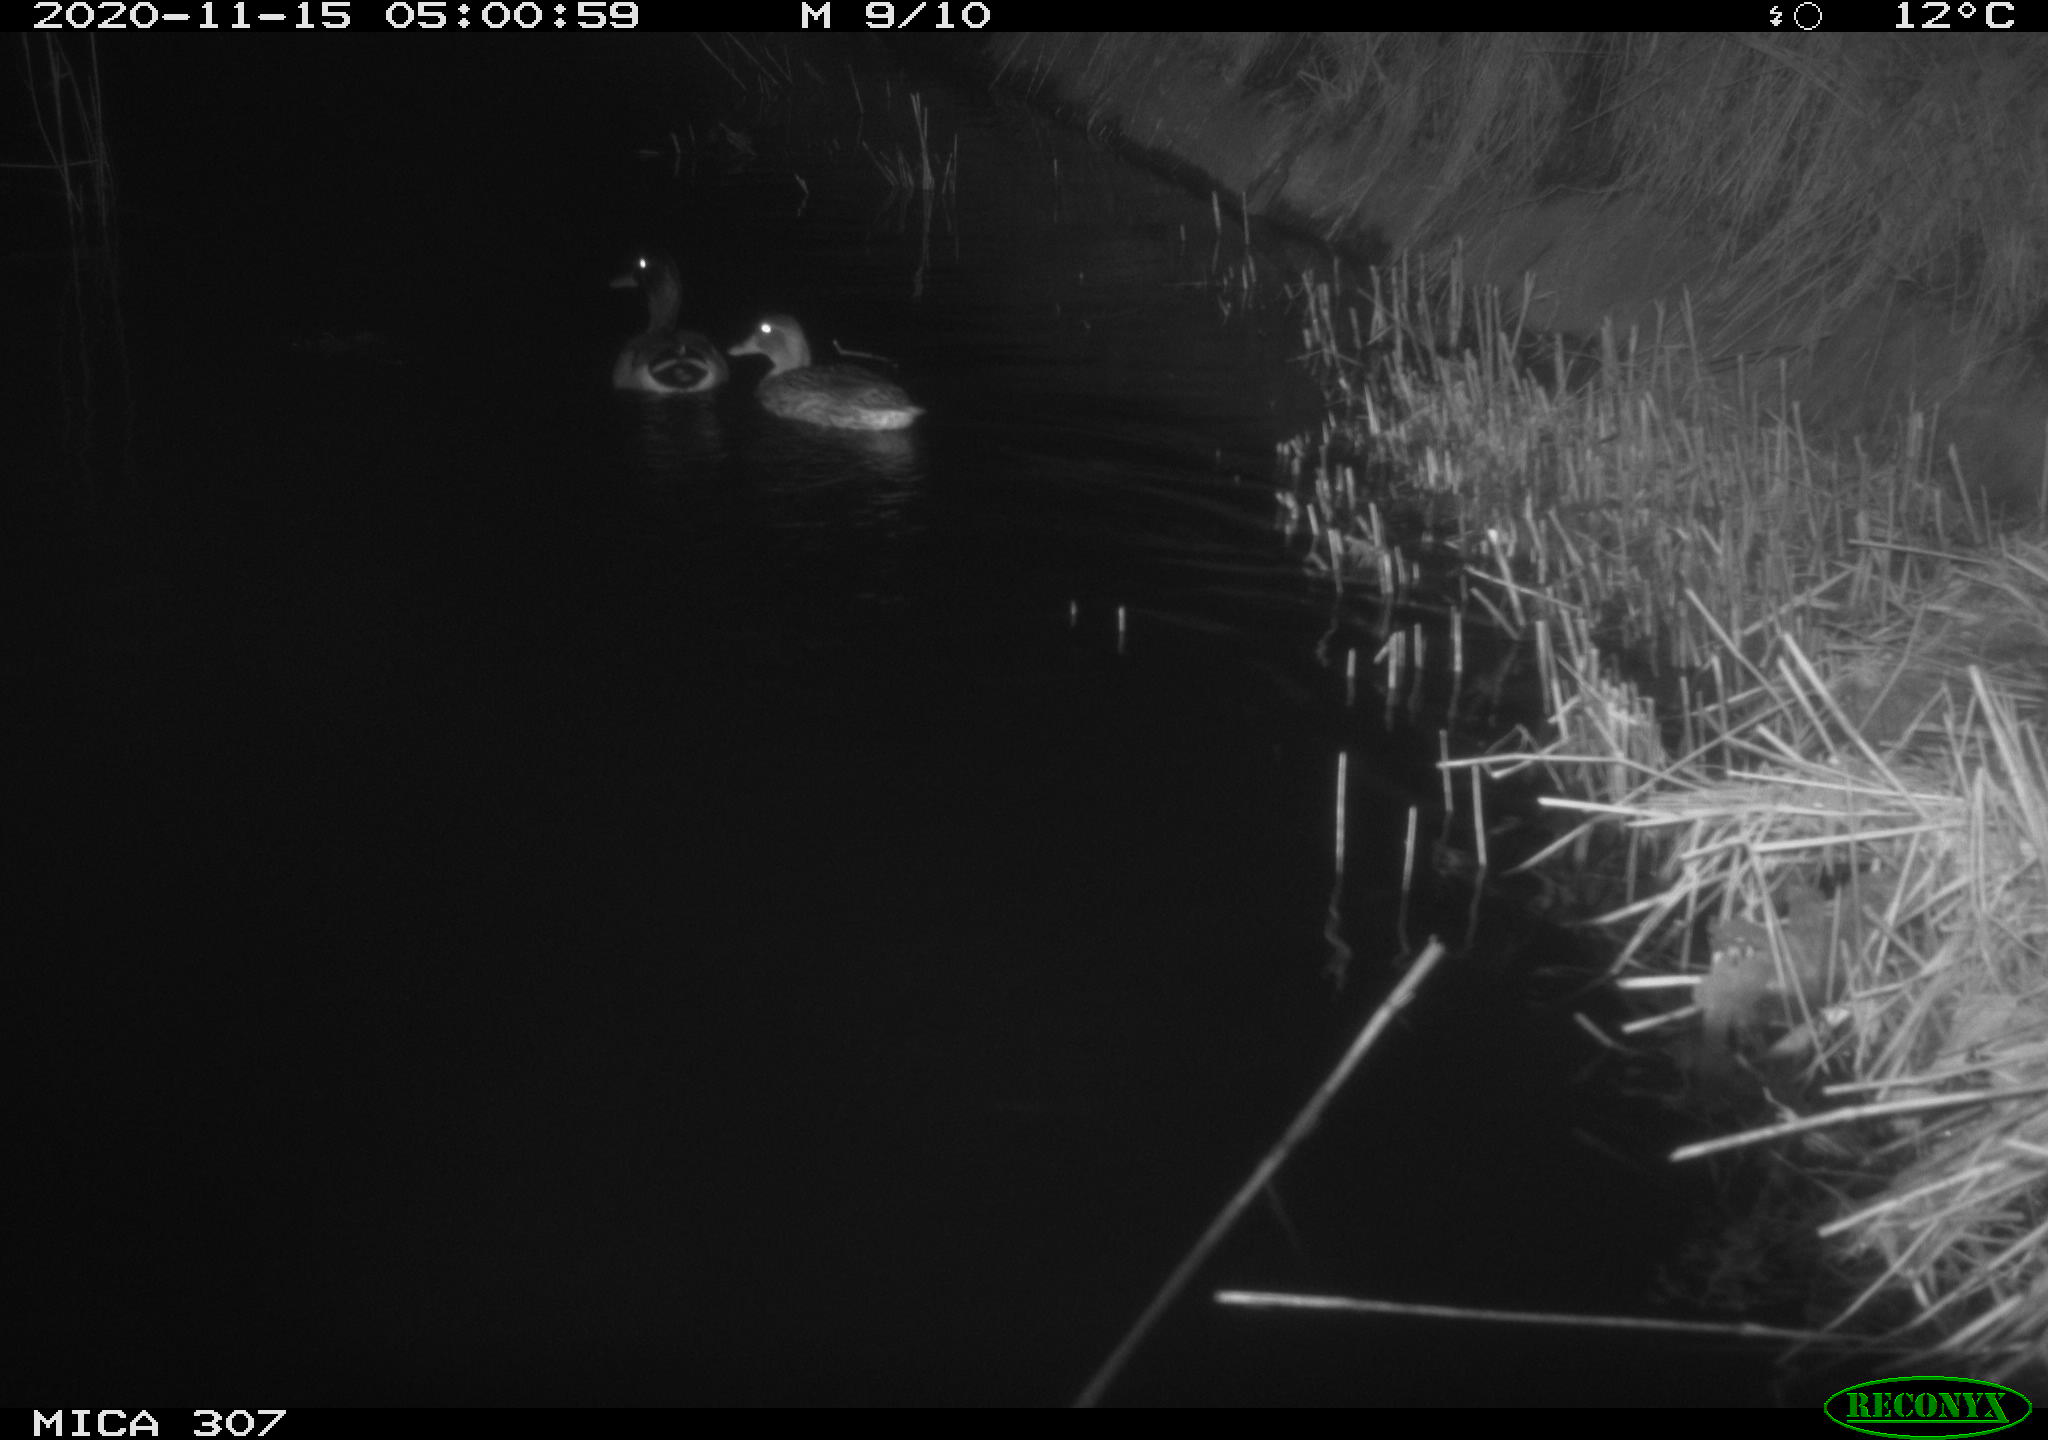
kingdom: Animalia
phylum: Chordata
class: Aves
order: Anseriformes
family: Anatidae
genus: Anas
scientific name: Anas platyrhynchos
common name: Mallard
